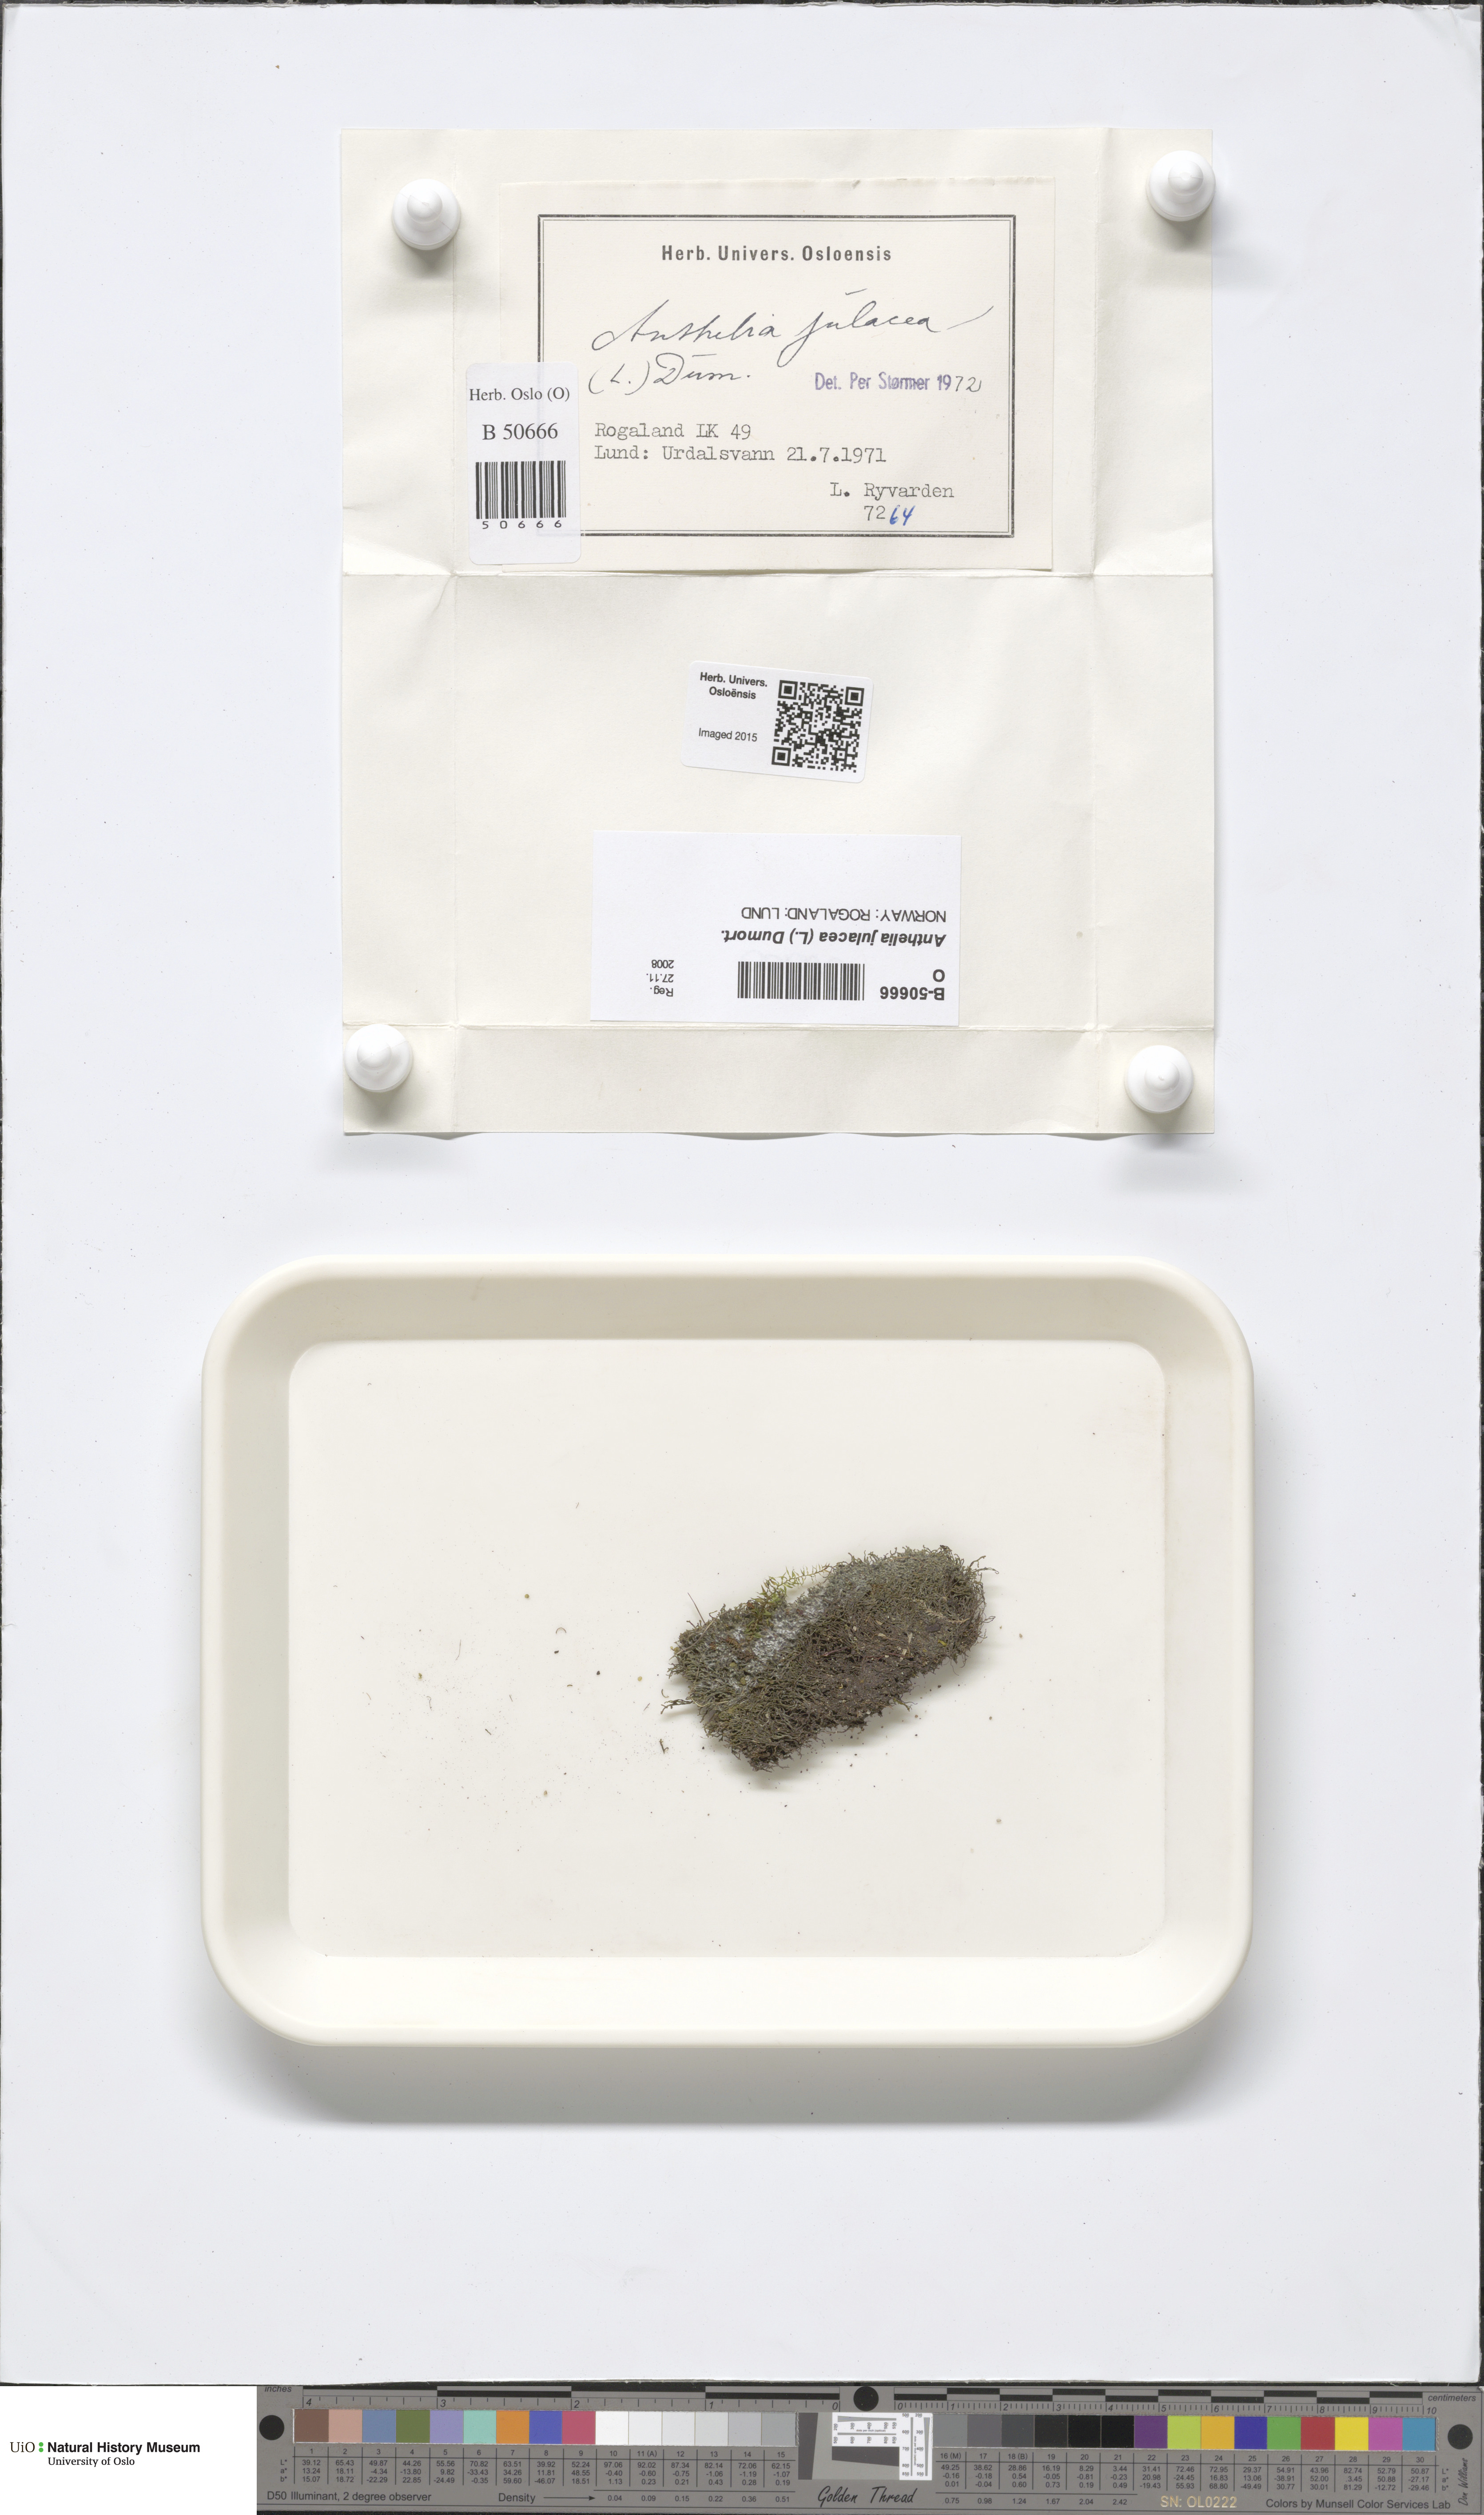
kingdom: Plantae
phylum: Marchantiophyta
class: Jungermanniopsida
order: Jungermanniales
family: Antheliaceae
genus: Anthelia
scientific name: Anthelia julacea
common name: Alpine silverwort
